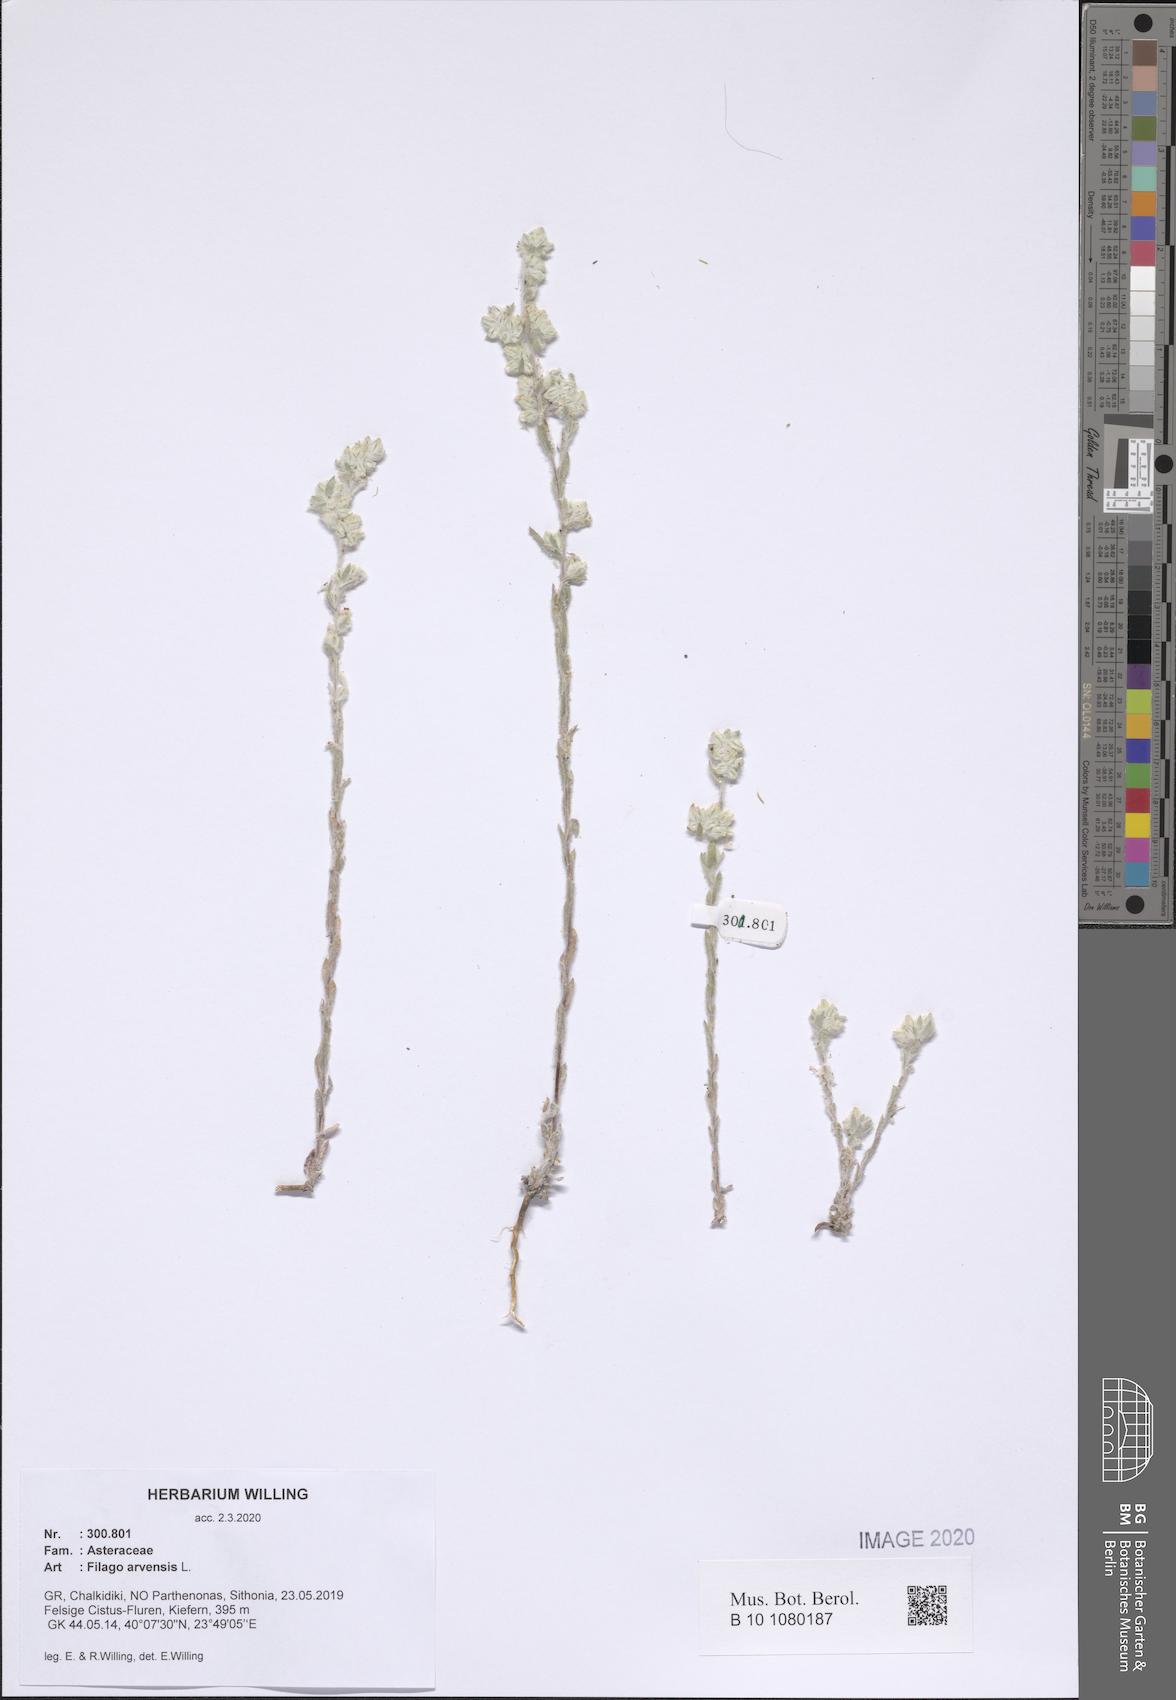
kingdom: Plantae
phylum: Tracheophyta
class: Magnoliopsida
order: Asterales
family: Asteraceae
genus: Filago
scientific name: Filago arvensis
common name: Field cudweed
